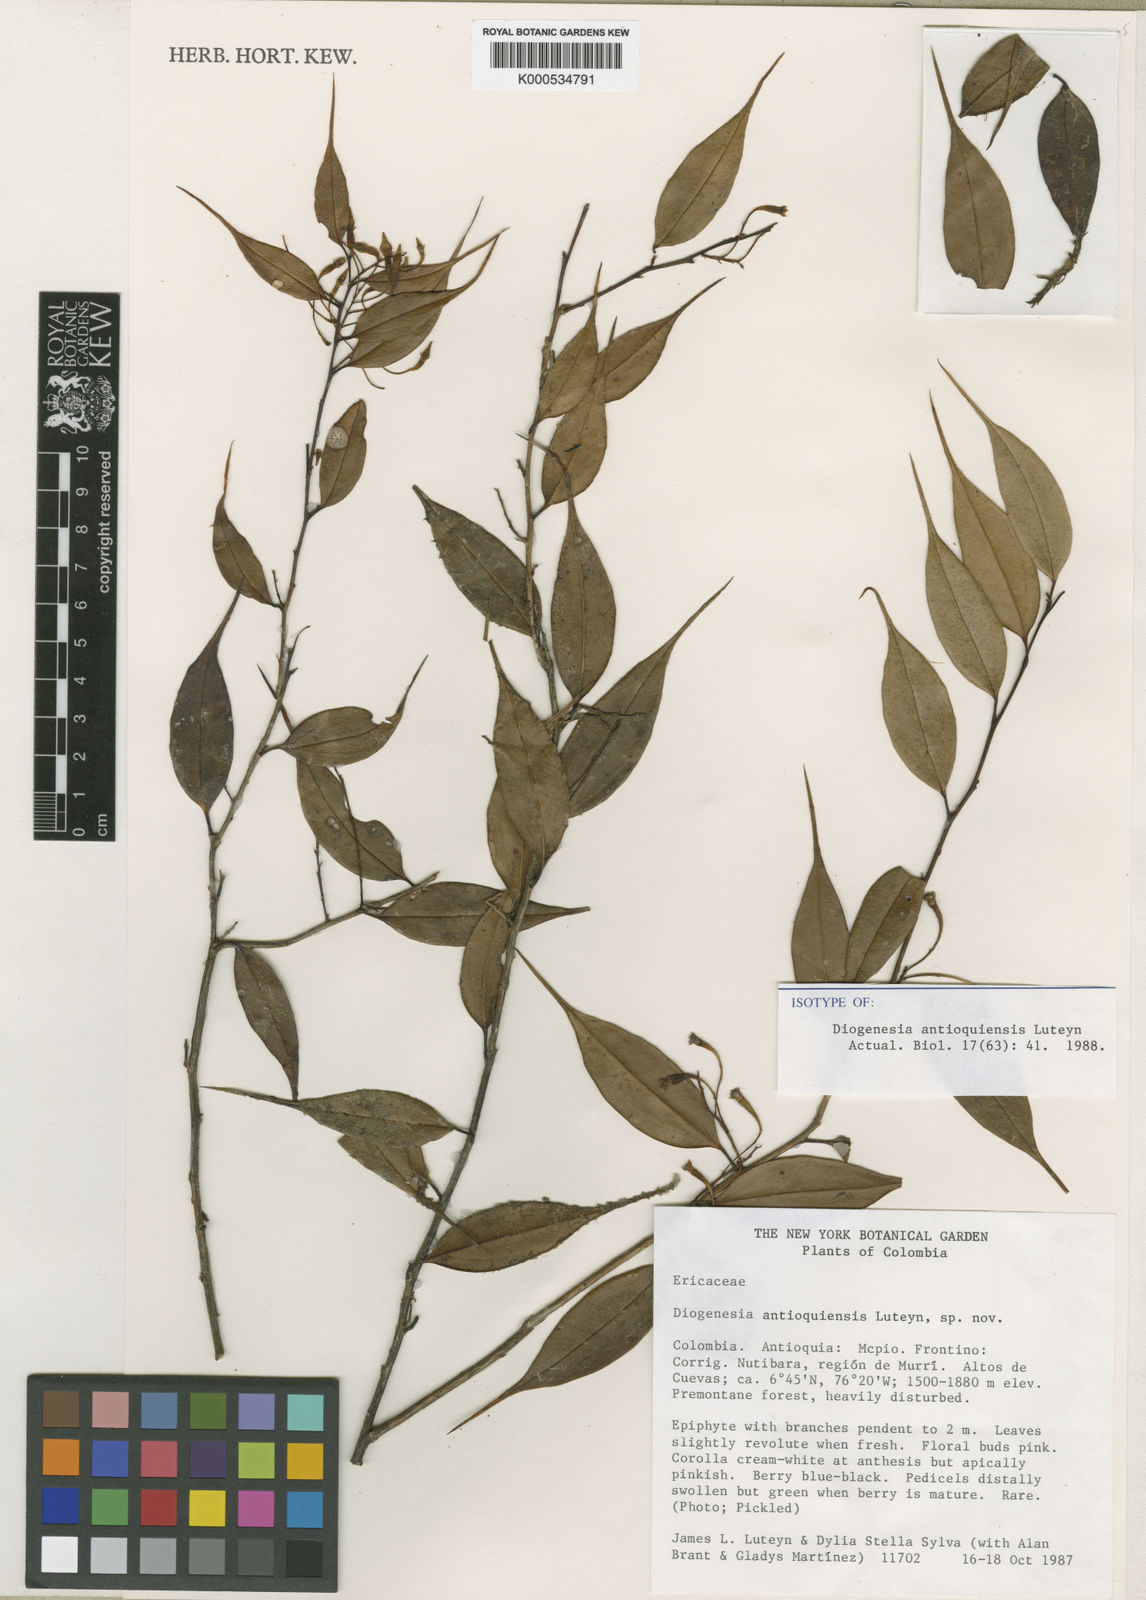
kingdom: Plantae
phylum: Tracheophyta
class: Magnoliopsida
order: Ericales
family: Ericaceae
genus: Diogenesia
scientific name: Diogenesia antioquiensis
